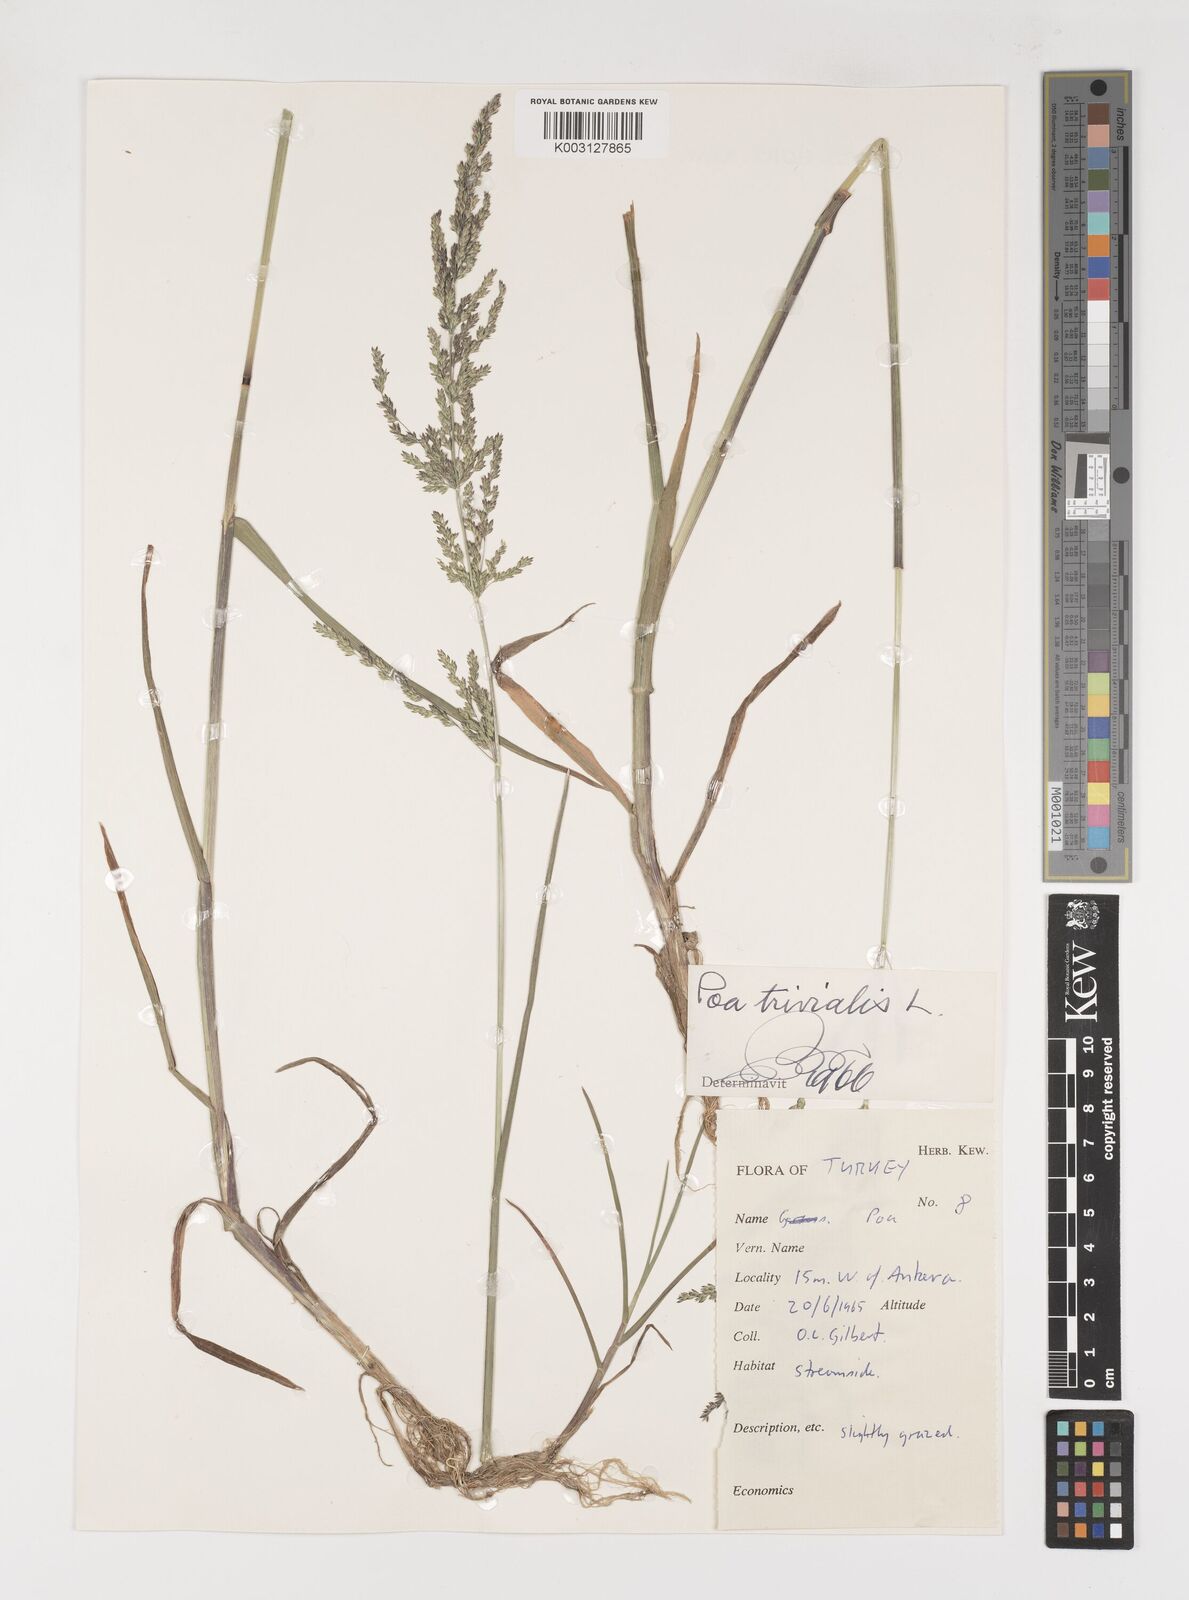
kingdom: Plantae
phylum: Tracheophyta
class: Liliopsida
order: Poales
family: Poaceae
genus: Poa
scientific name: Poa trivialis
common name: Rough bluegrass
